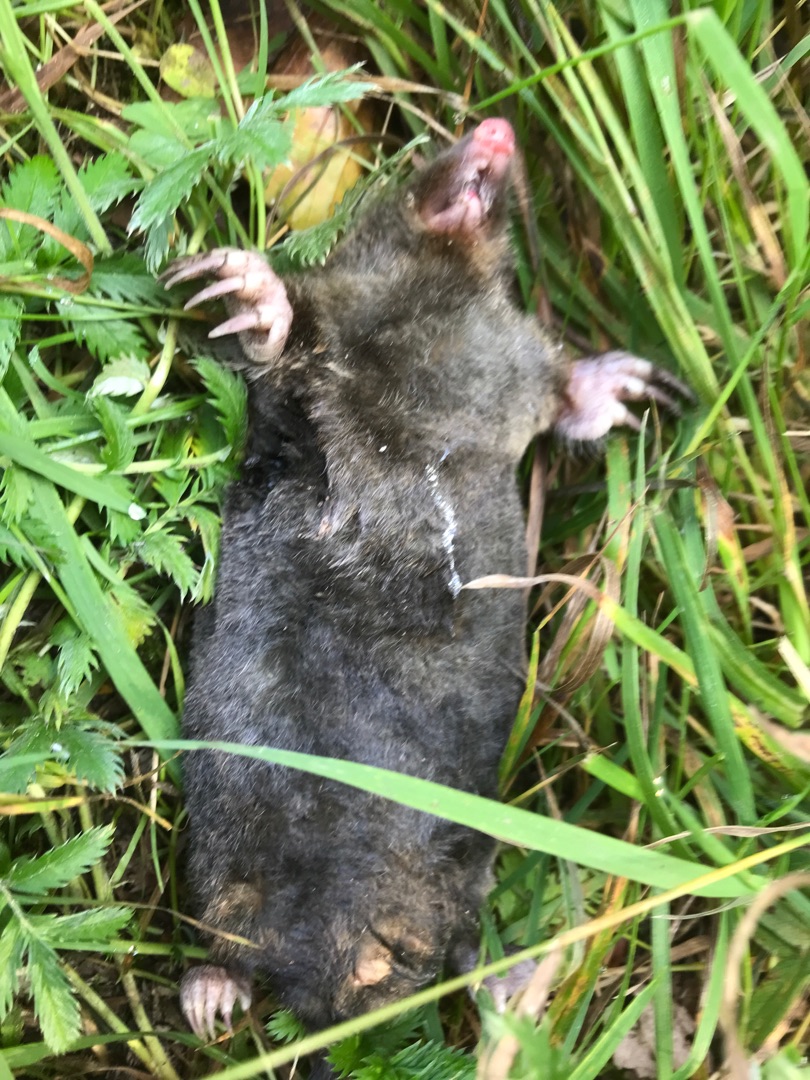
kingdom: Animalia
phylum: Chordata
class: Mammalia
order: Soricomorpha
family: Talpidae
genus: Talpa
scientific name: Talpa europaea
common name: Muldvarp
